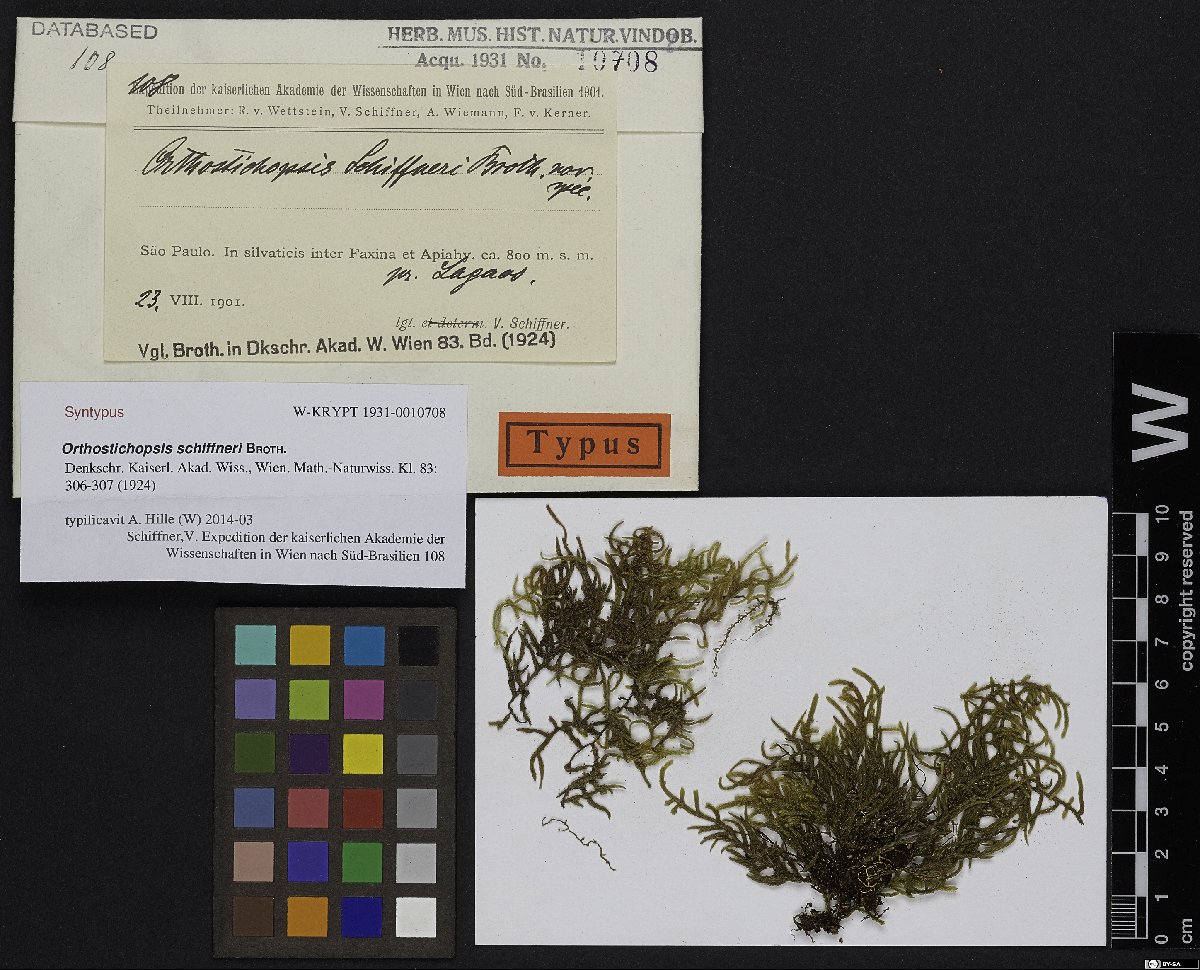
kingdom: Plantae
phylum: Bryophyta
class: Bryopsida
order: Hypnales
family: Pterobryaceae
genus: Orthostichopsis
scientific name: Orthostichopsis tenuis
